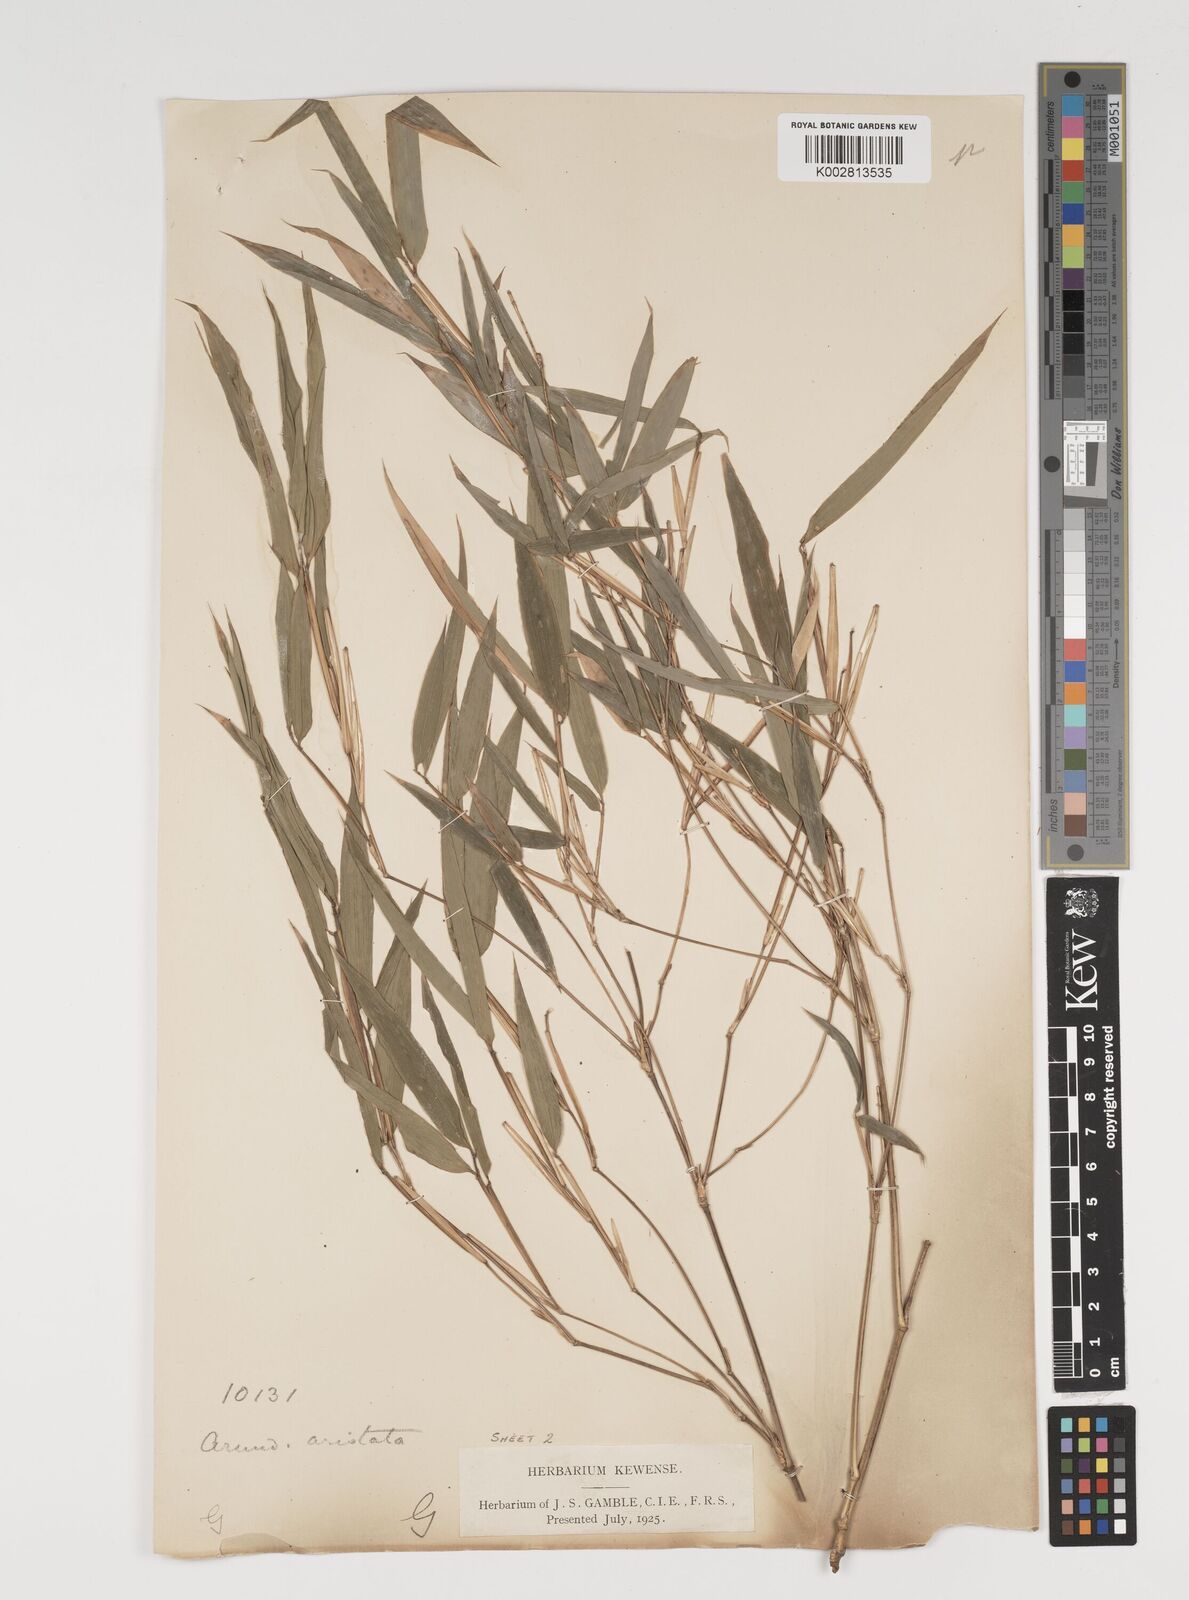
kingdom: Plantae
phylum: Tracheophyta
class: Liliopsida
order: Poales
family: Poaceae
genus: Thamnocalamus
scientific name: Thamnocalamus spathiflorus
